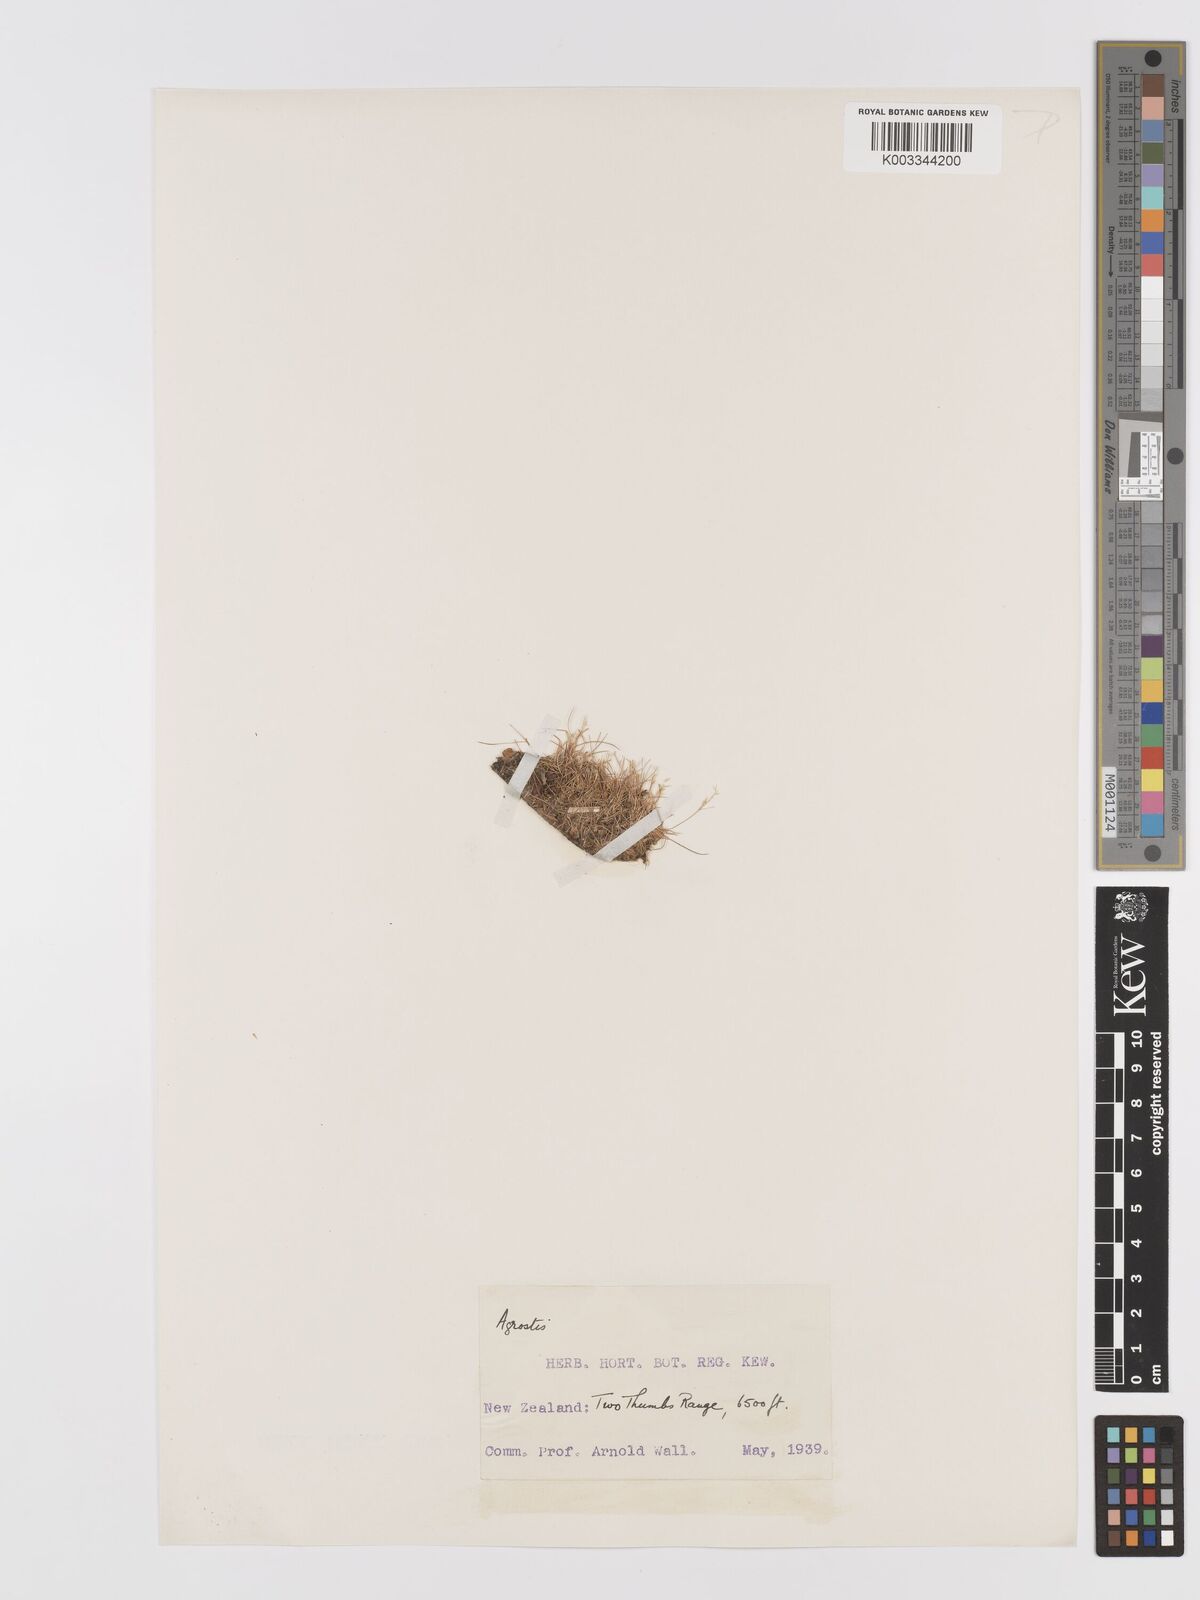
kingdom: Plantae
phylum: Tracheophyta
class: Liliopsida
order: Poales
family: Poaceae
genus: Agrostis
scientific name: Agrostis
